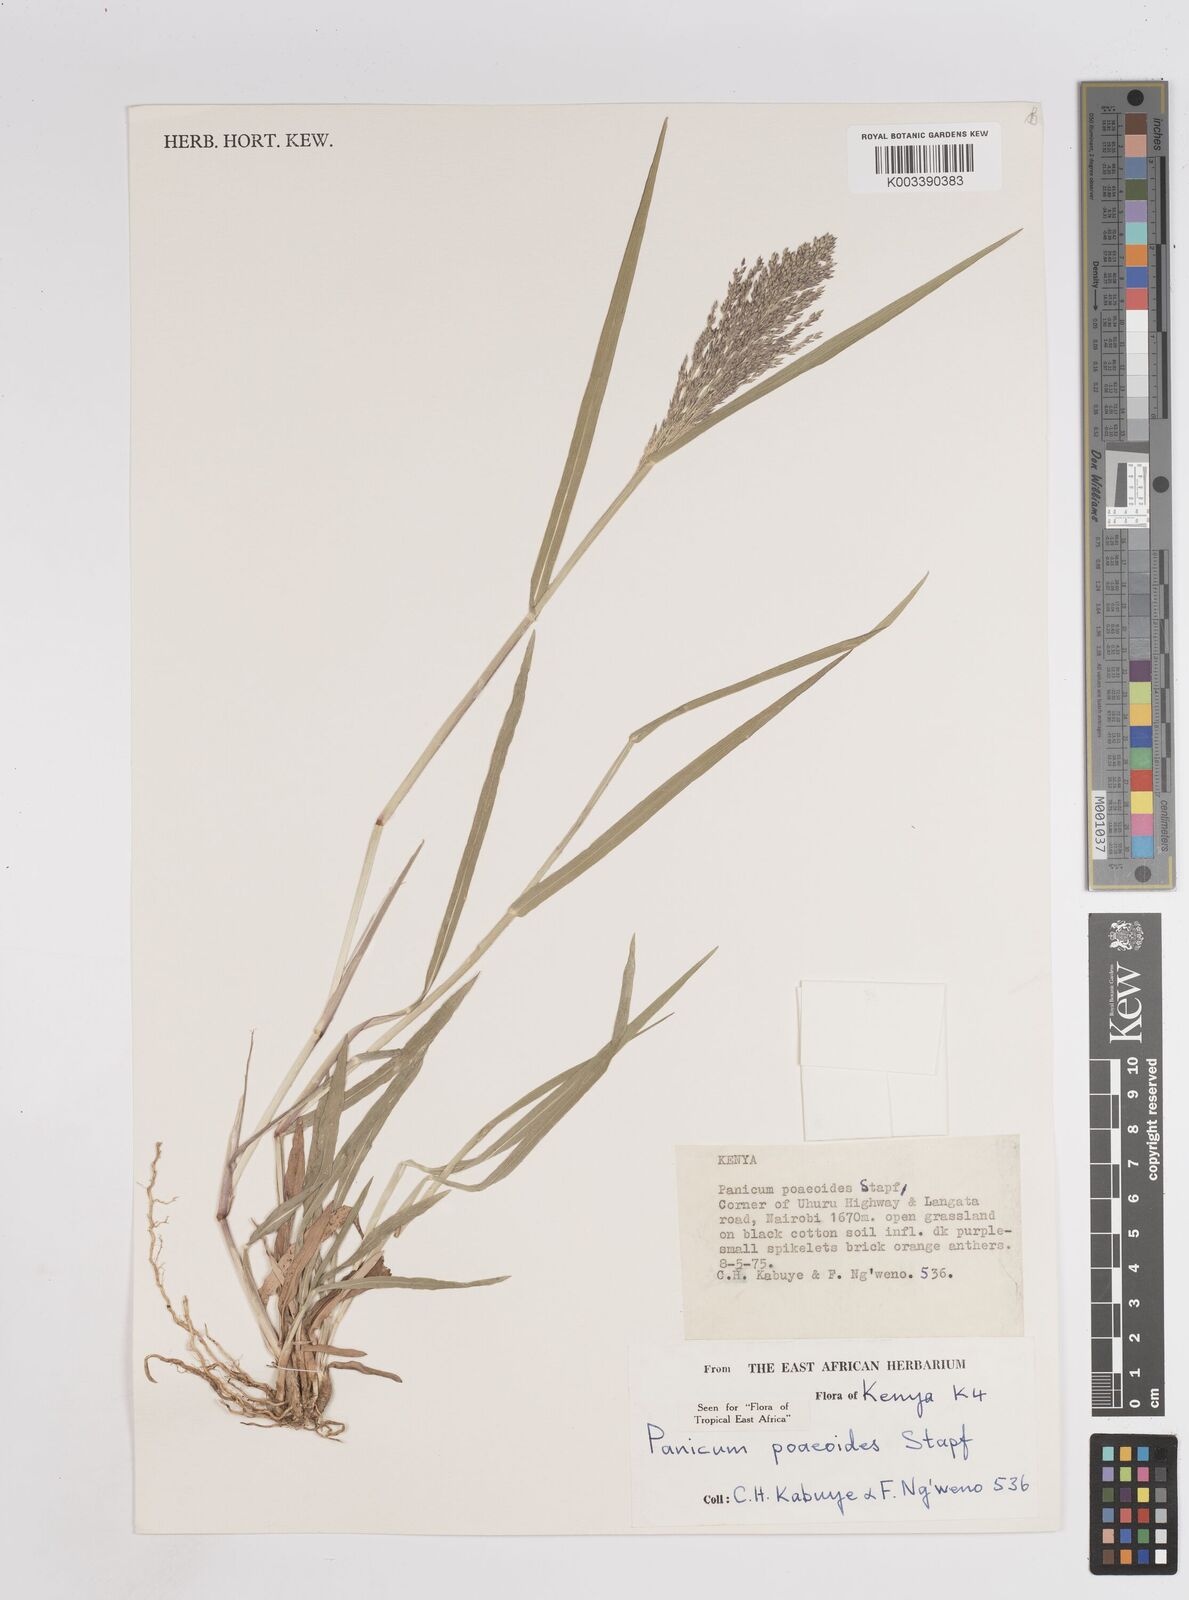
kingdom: Plantae
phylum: Tracheophyta
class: Liliopsida
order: Poales
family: Poaceae
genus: Panicum
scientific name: Panicum
